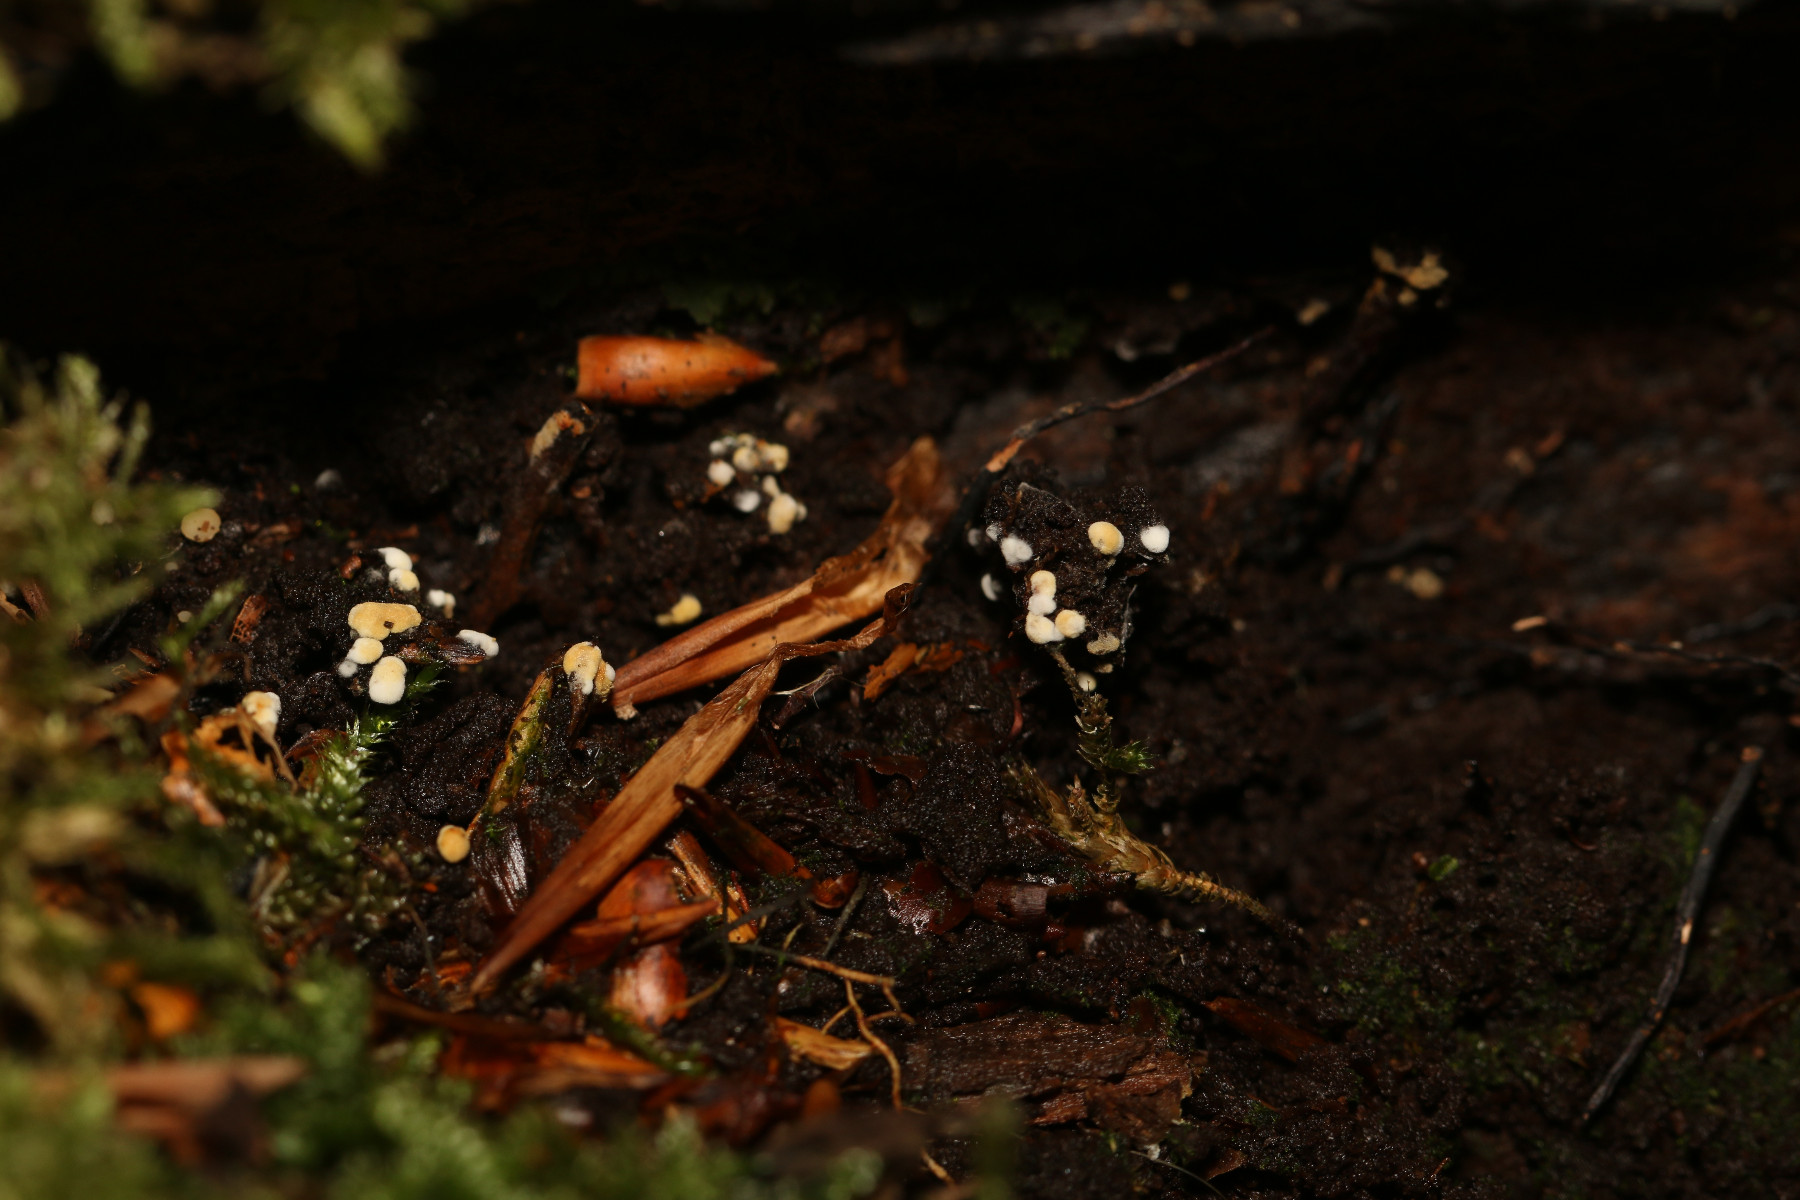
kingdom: Fungi
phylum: Basidiomycota
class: Agaricomycetes
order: Cantharellales
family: Botryobasidiaceae
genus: Botryobasidium
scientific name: Botryobasidium aureum
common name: gylden spindhinde
